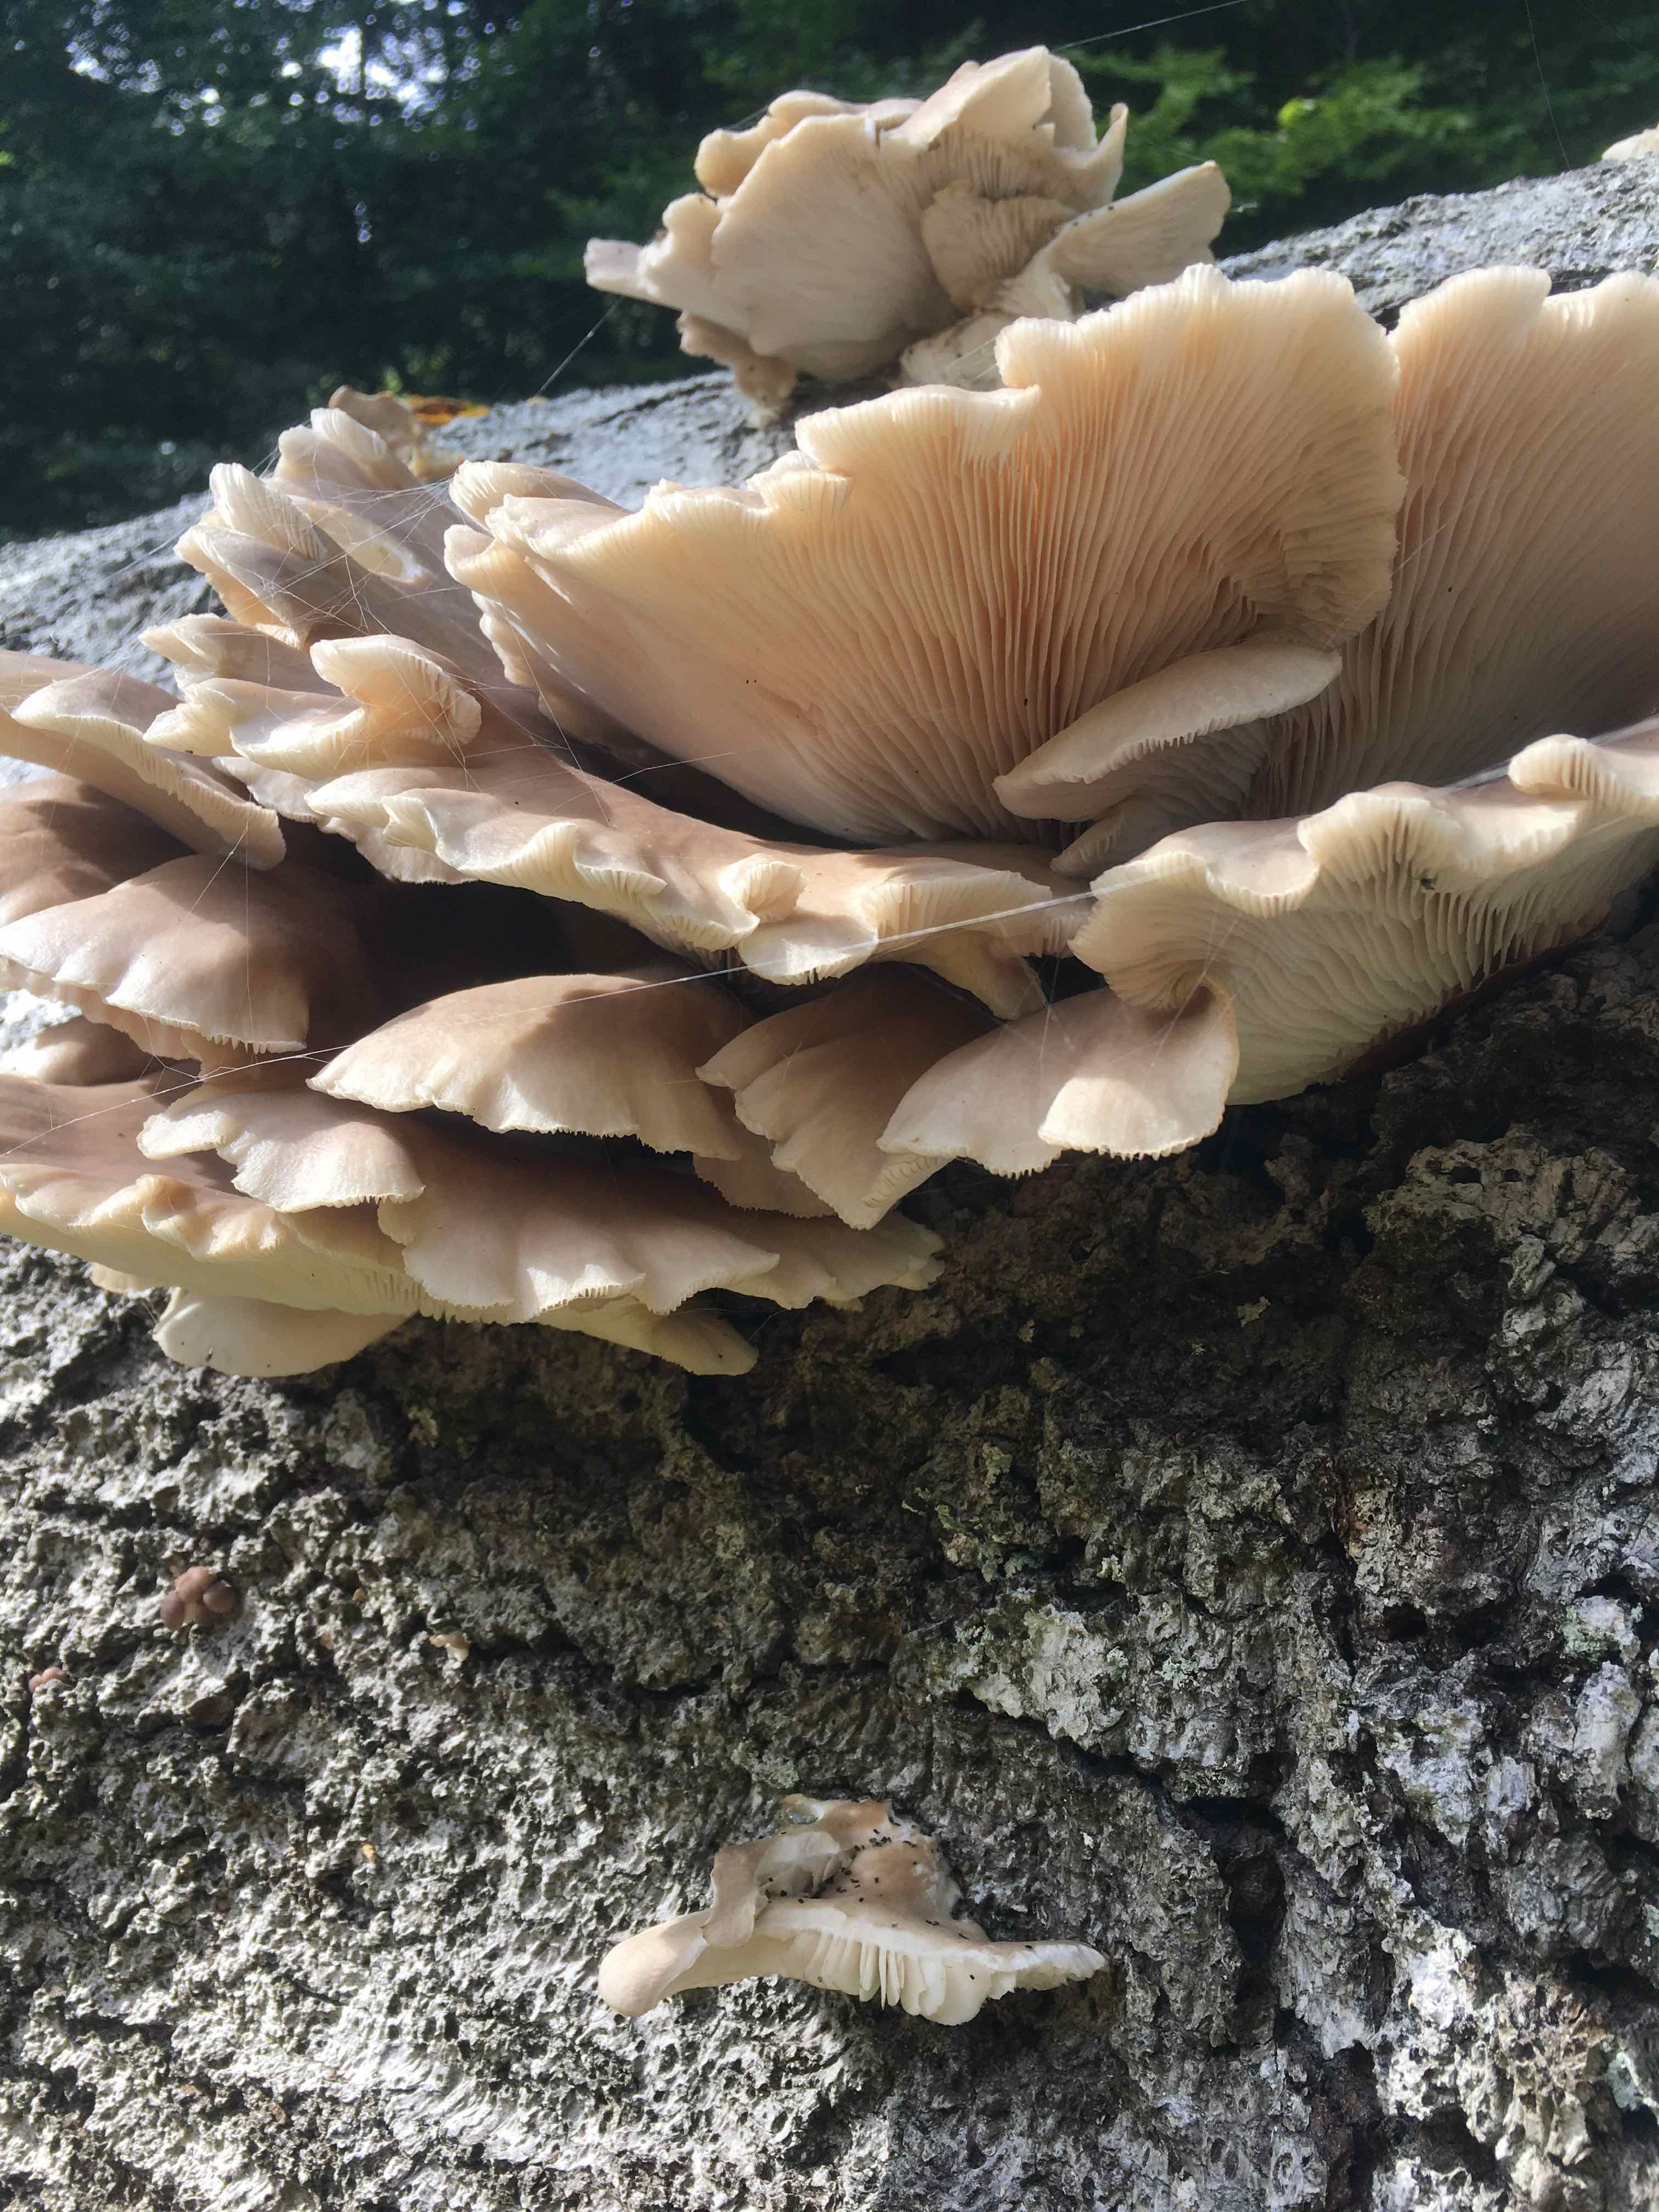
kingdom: Fungi
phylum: Basidiomycota
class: Agaricomycetes
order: Agaricales
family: Pleurotaceae
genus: Pleurotus
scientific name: Pleurotus ostreatus
